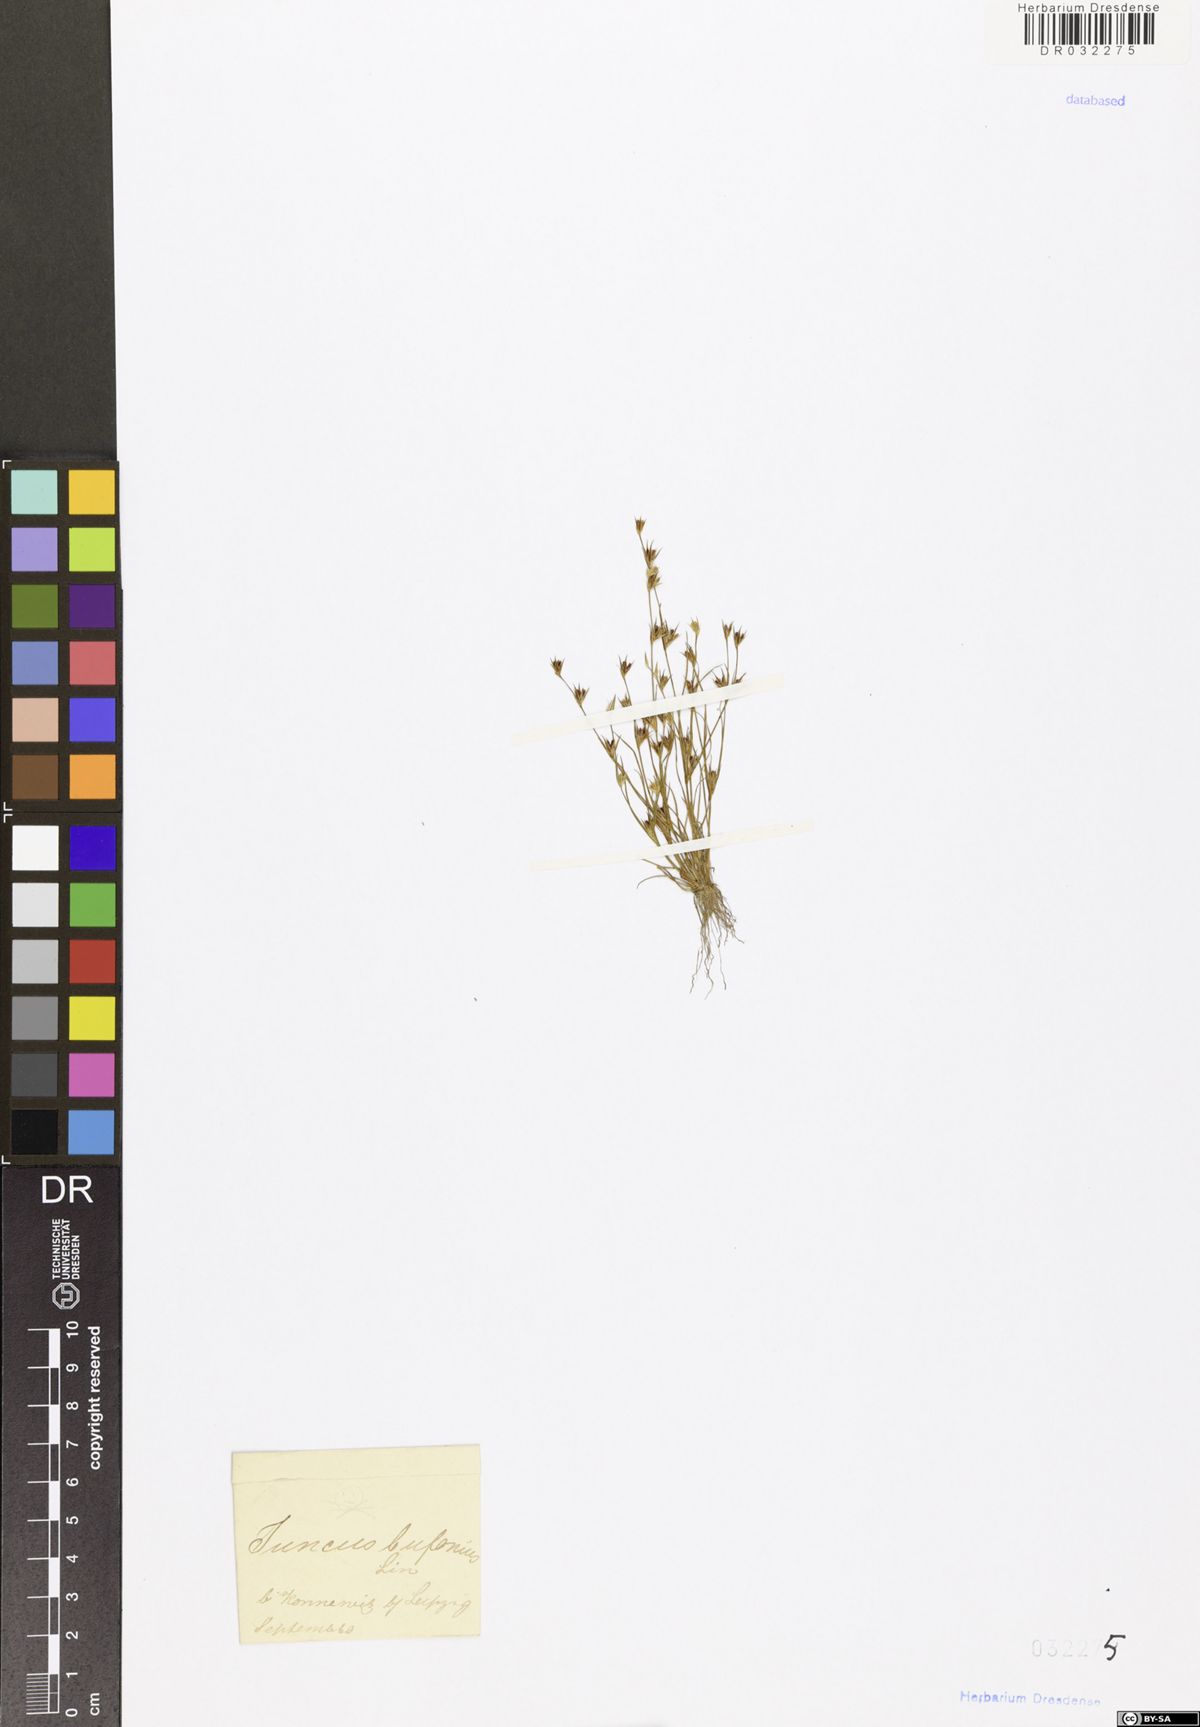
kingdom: Plantae
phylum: Tracheophyta
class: Liliopsida
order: Poales
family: Juncaceae
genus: Juncus
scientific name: Juncus bufonius
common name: Toad rush
